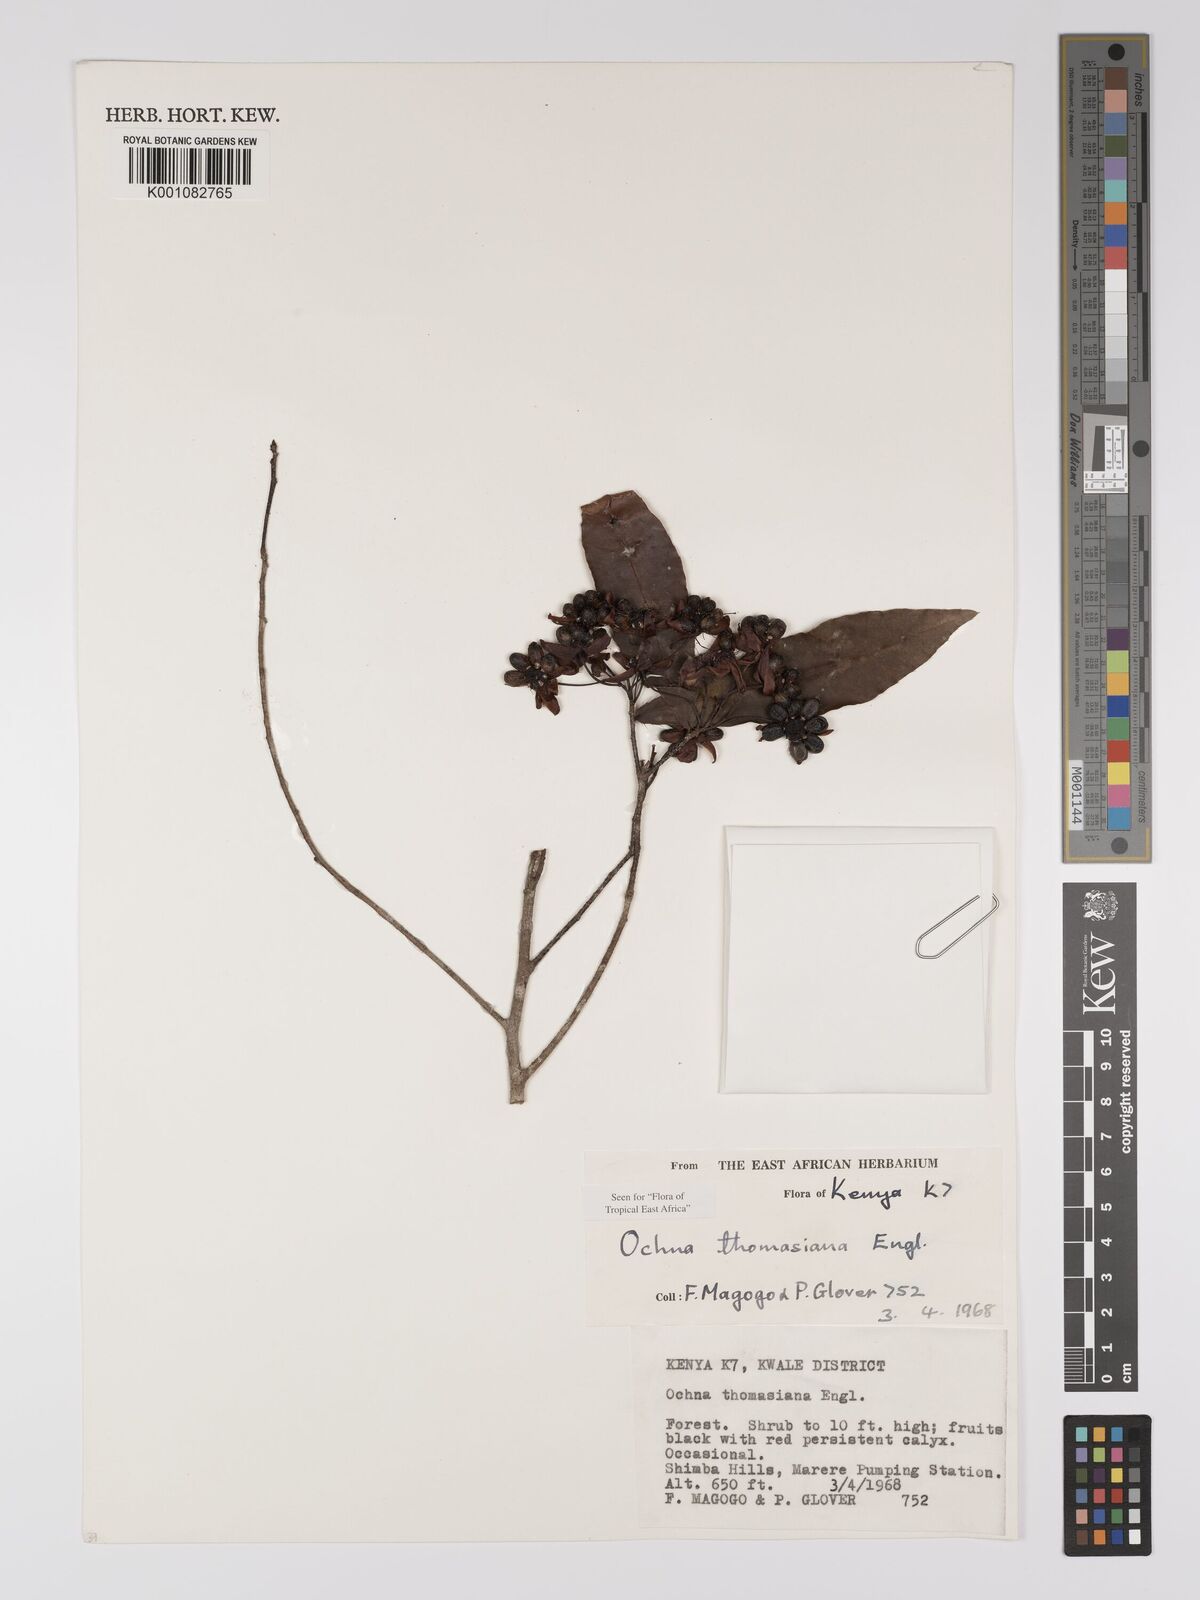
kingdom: Plantae
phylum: Tracheophyta
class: Magnoliopsida
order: Malpighiales
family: Ochnaceae
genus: Ochna
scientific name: Ochna thomasiana
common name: Thomas' bird's-eye bush
